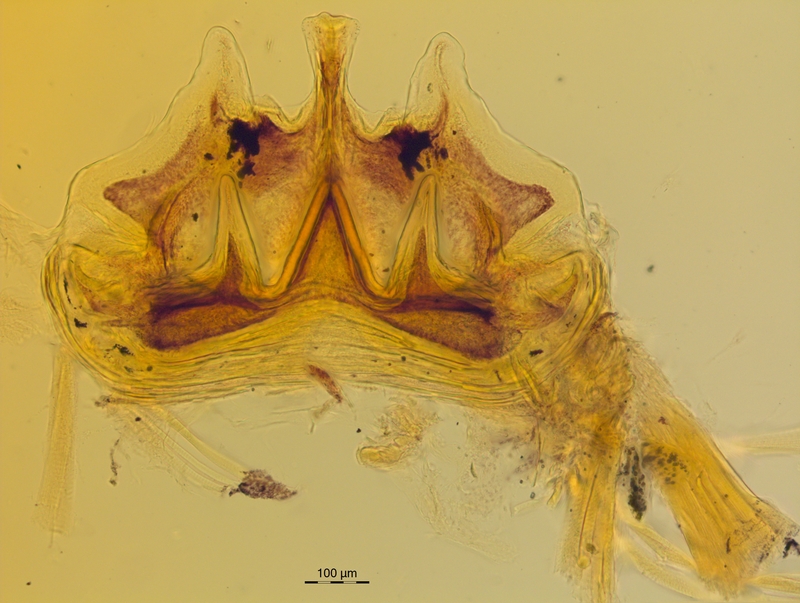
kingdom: Animalia
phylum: Arthropoda
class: Diplopoda
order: Chordeumatida
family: Craspedosomatidae
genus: Craspedosoma
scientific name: Craspedosoma rawlinsii
